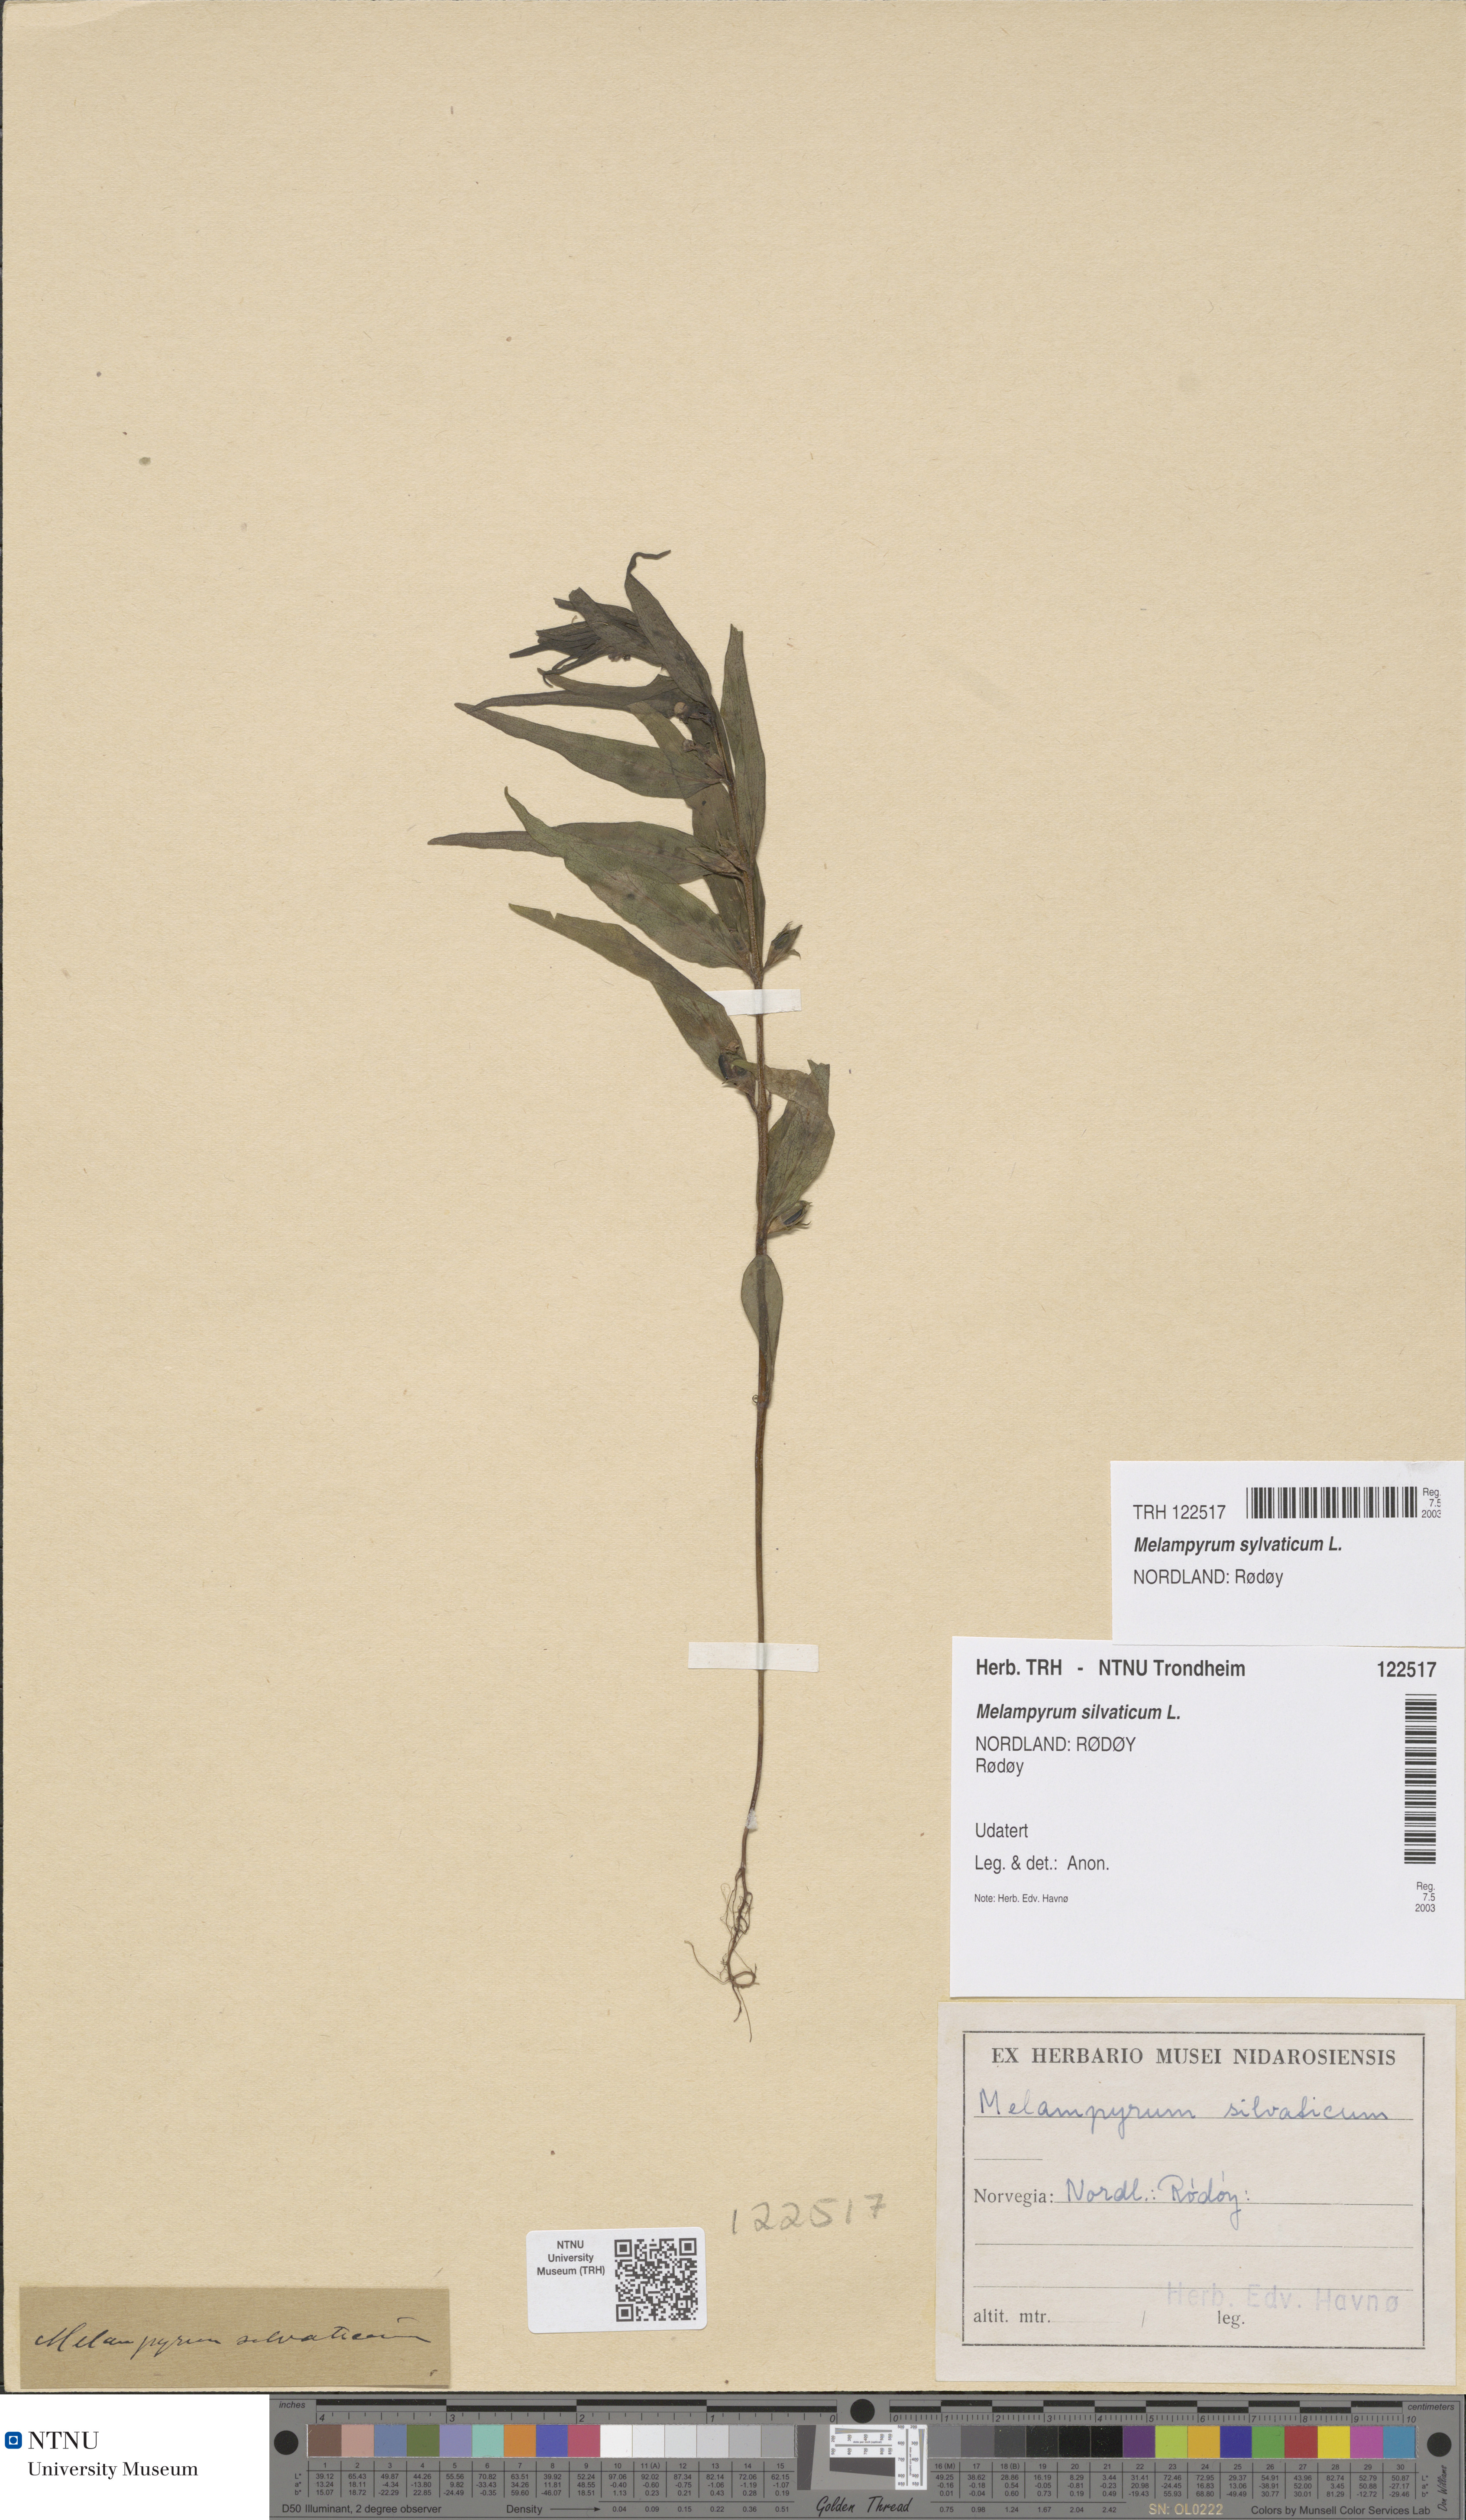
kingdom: Plantae
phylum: Tracheophyta
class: Magnoliopsida
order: Lamiales
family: Orobanchaceae
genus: Melampyrum
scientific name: Melampyrum sylvaticum
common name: Small cow-wheat
